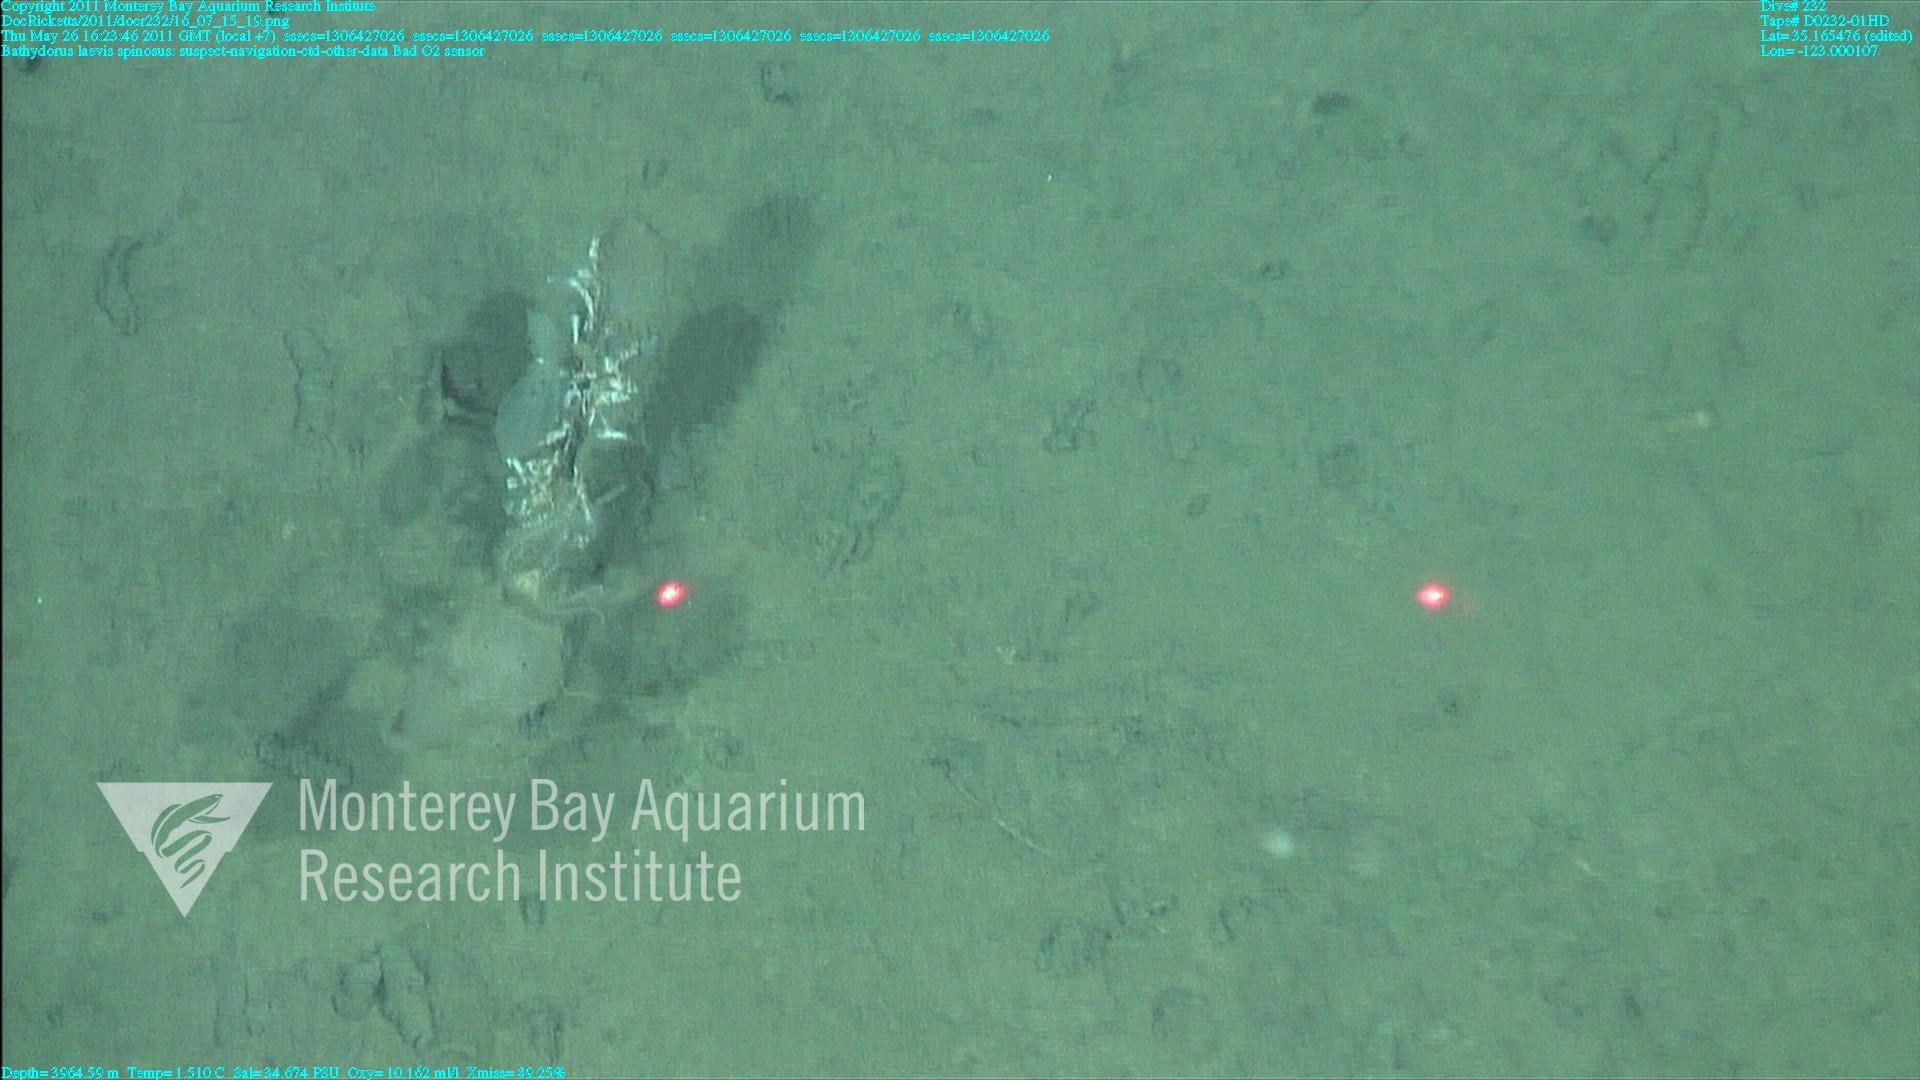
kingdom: Animalia
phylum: Porifera
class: Hexactinellida
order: Lyssacinosida
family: Rossellidae
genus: Bathydorus
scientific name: Bathydorus spinosus
